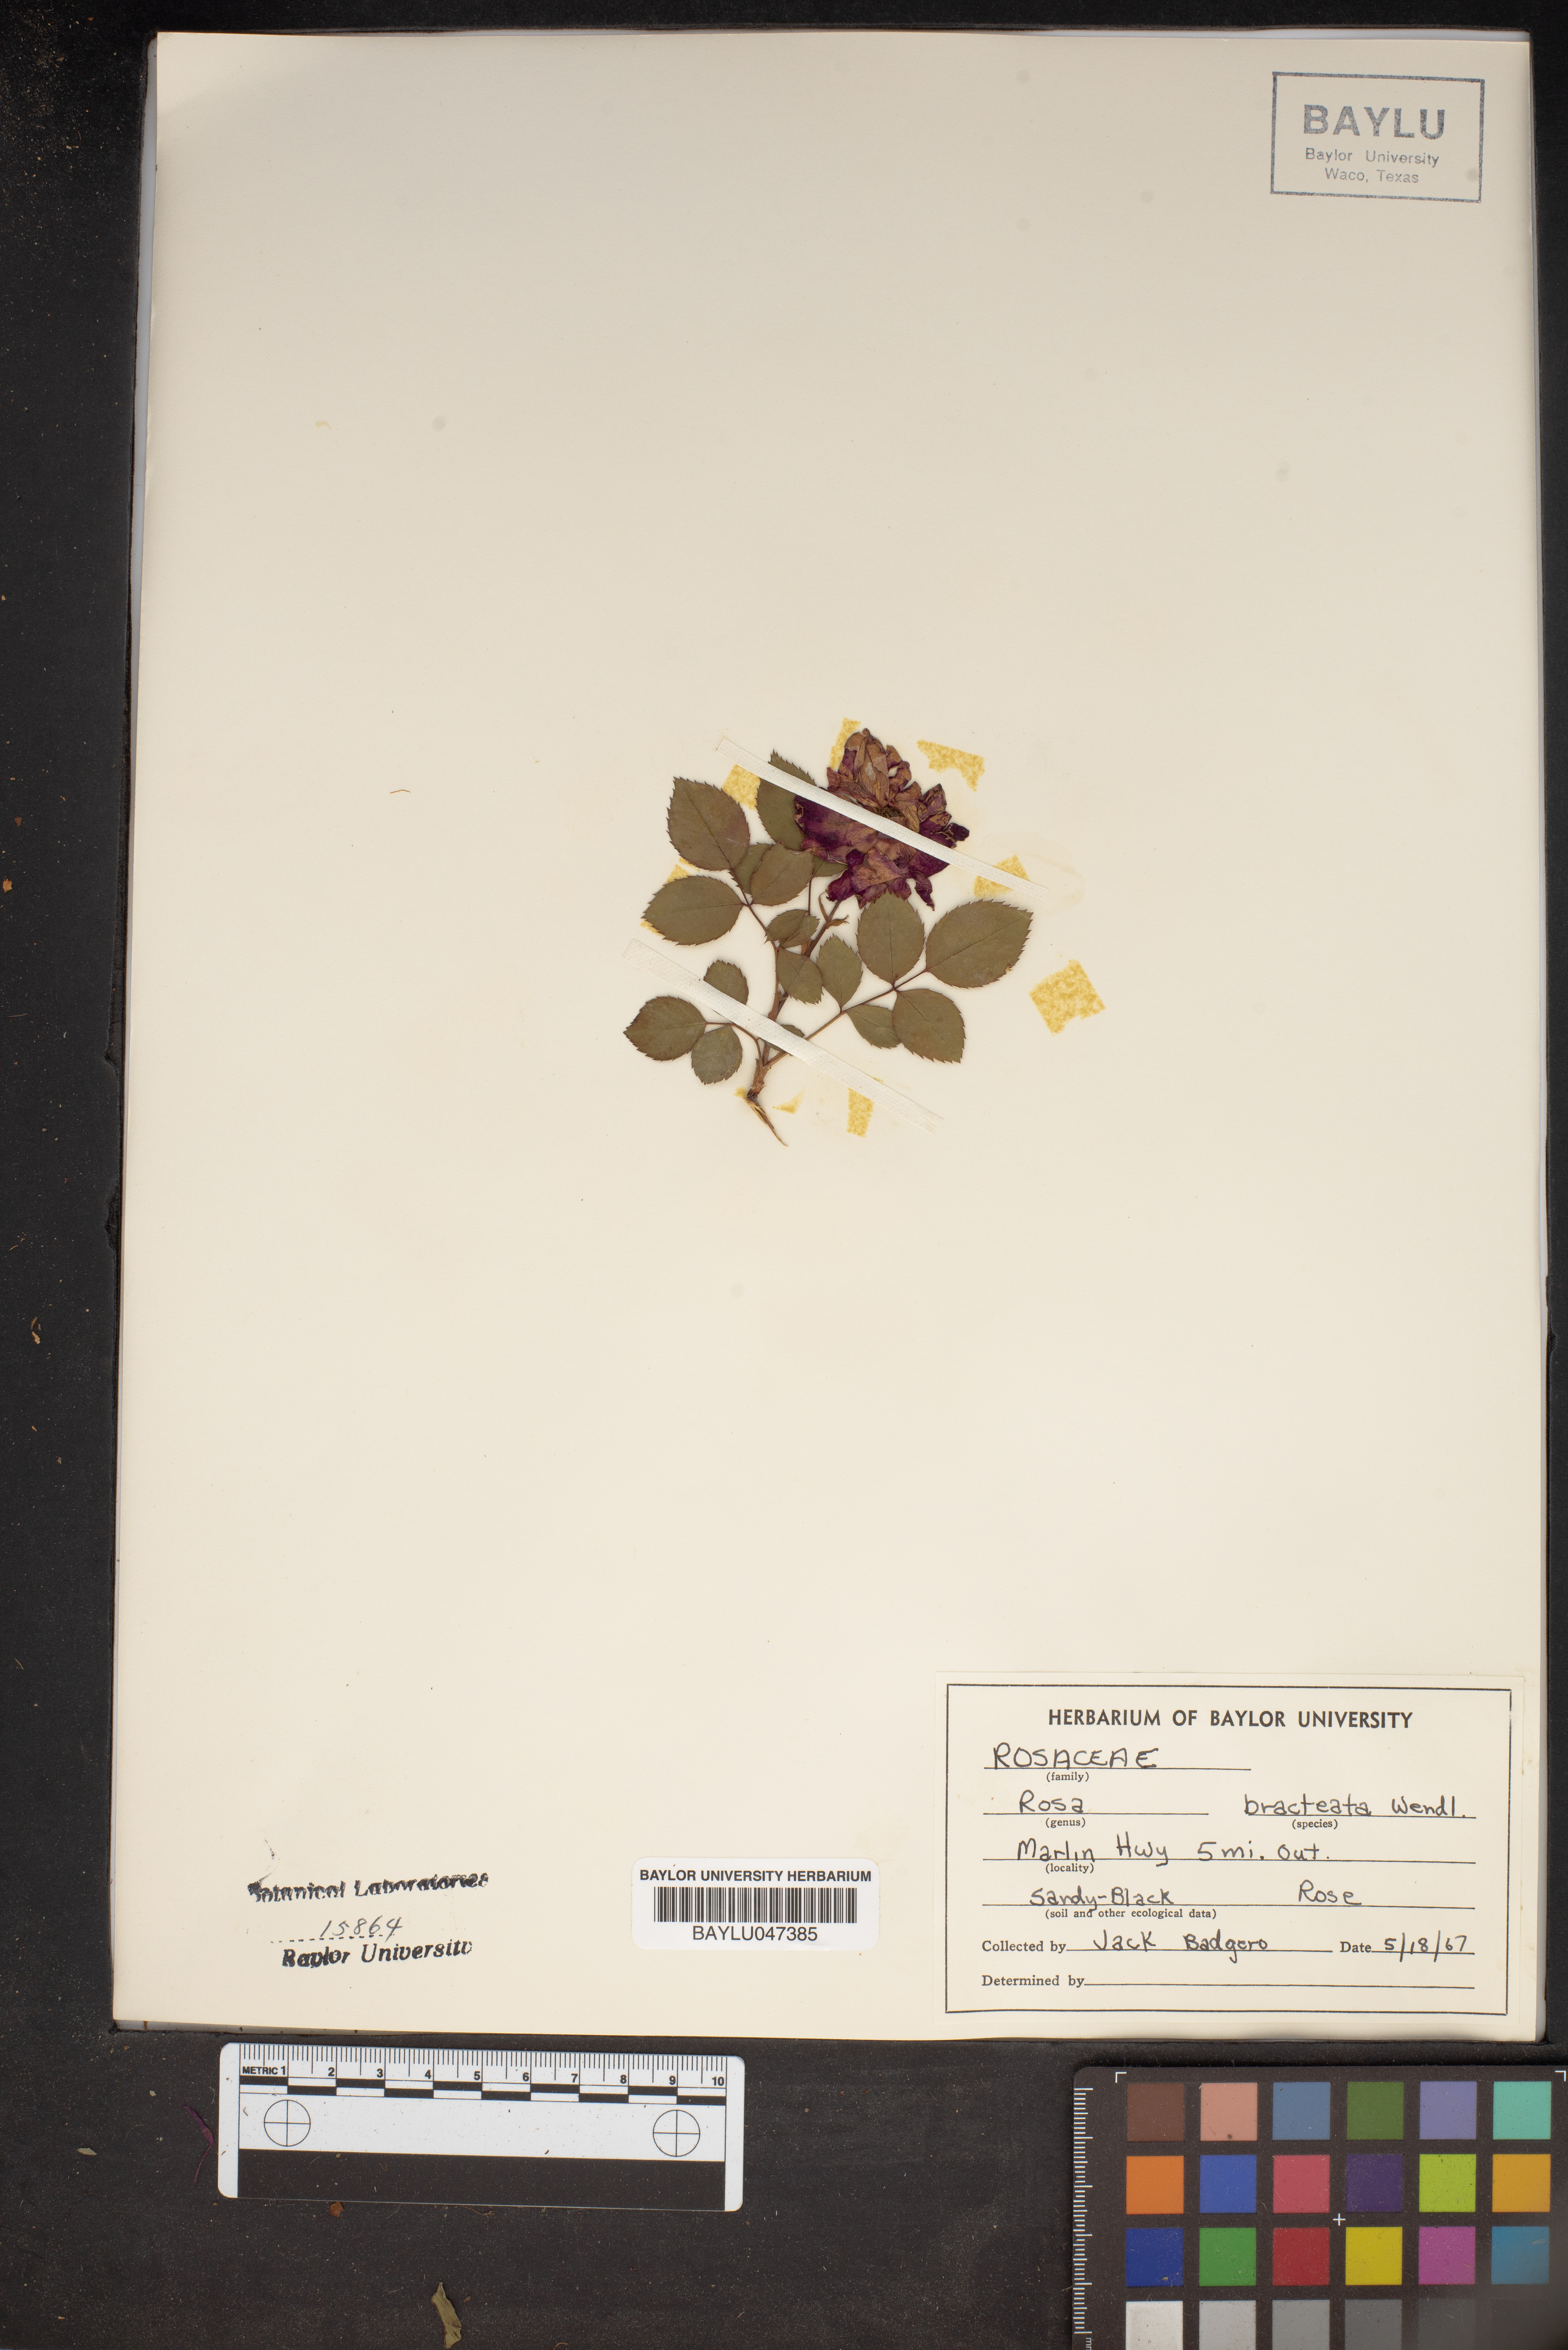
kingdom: Plantae
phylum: Tracheophyta
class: Magnoliopsida
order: Rosales
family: Rosaceae
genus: Rosa
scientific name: Rosa bracteata
